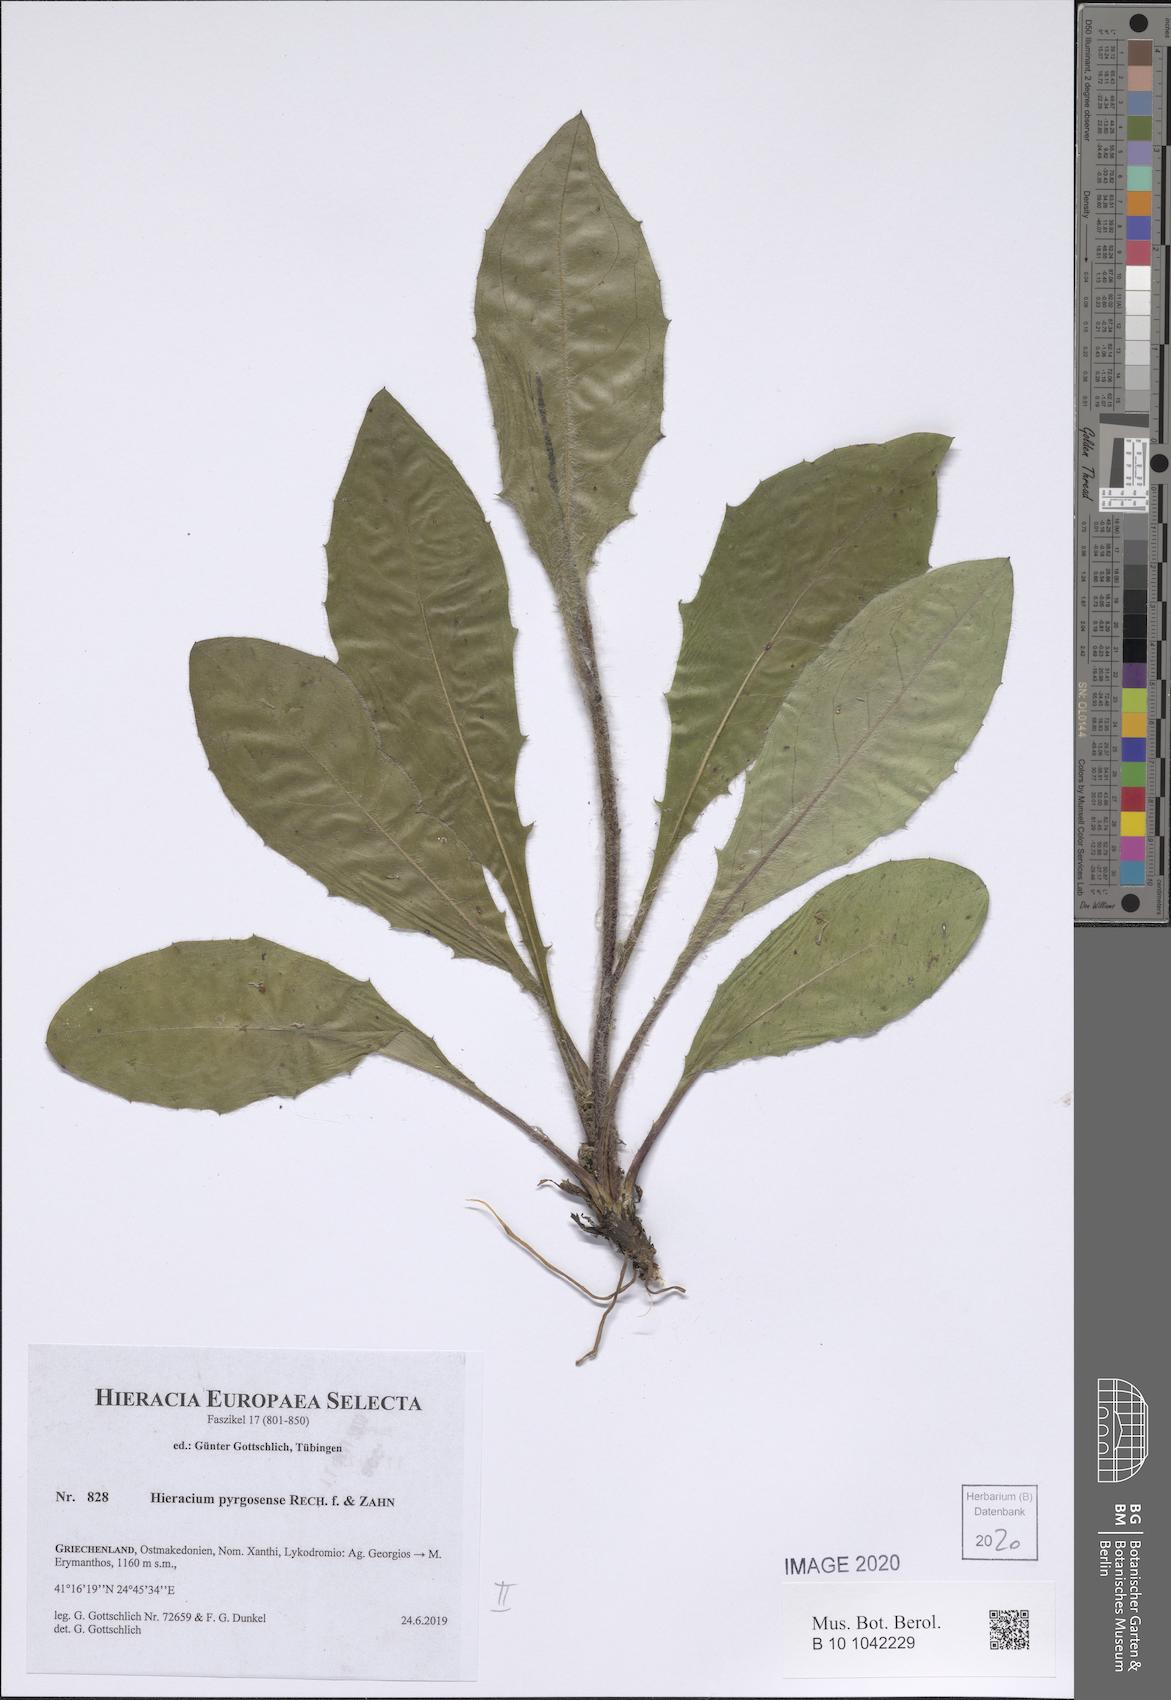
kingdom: Plantae
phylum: Tracheophyta
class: Magnoliopsida
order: Asterales
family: Asteraceae
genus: Hieracium
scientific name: Hieracium pyrgosense
